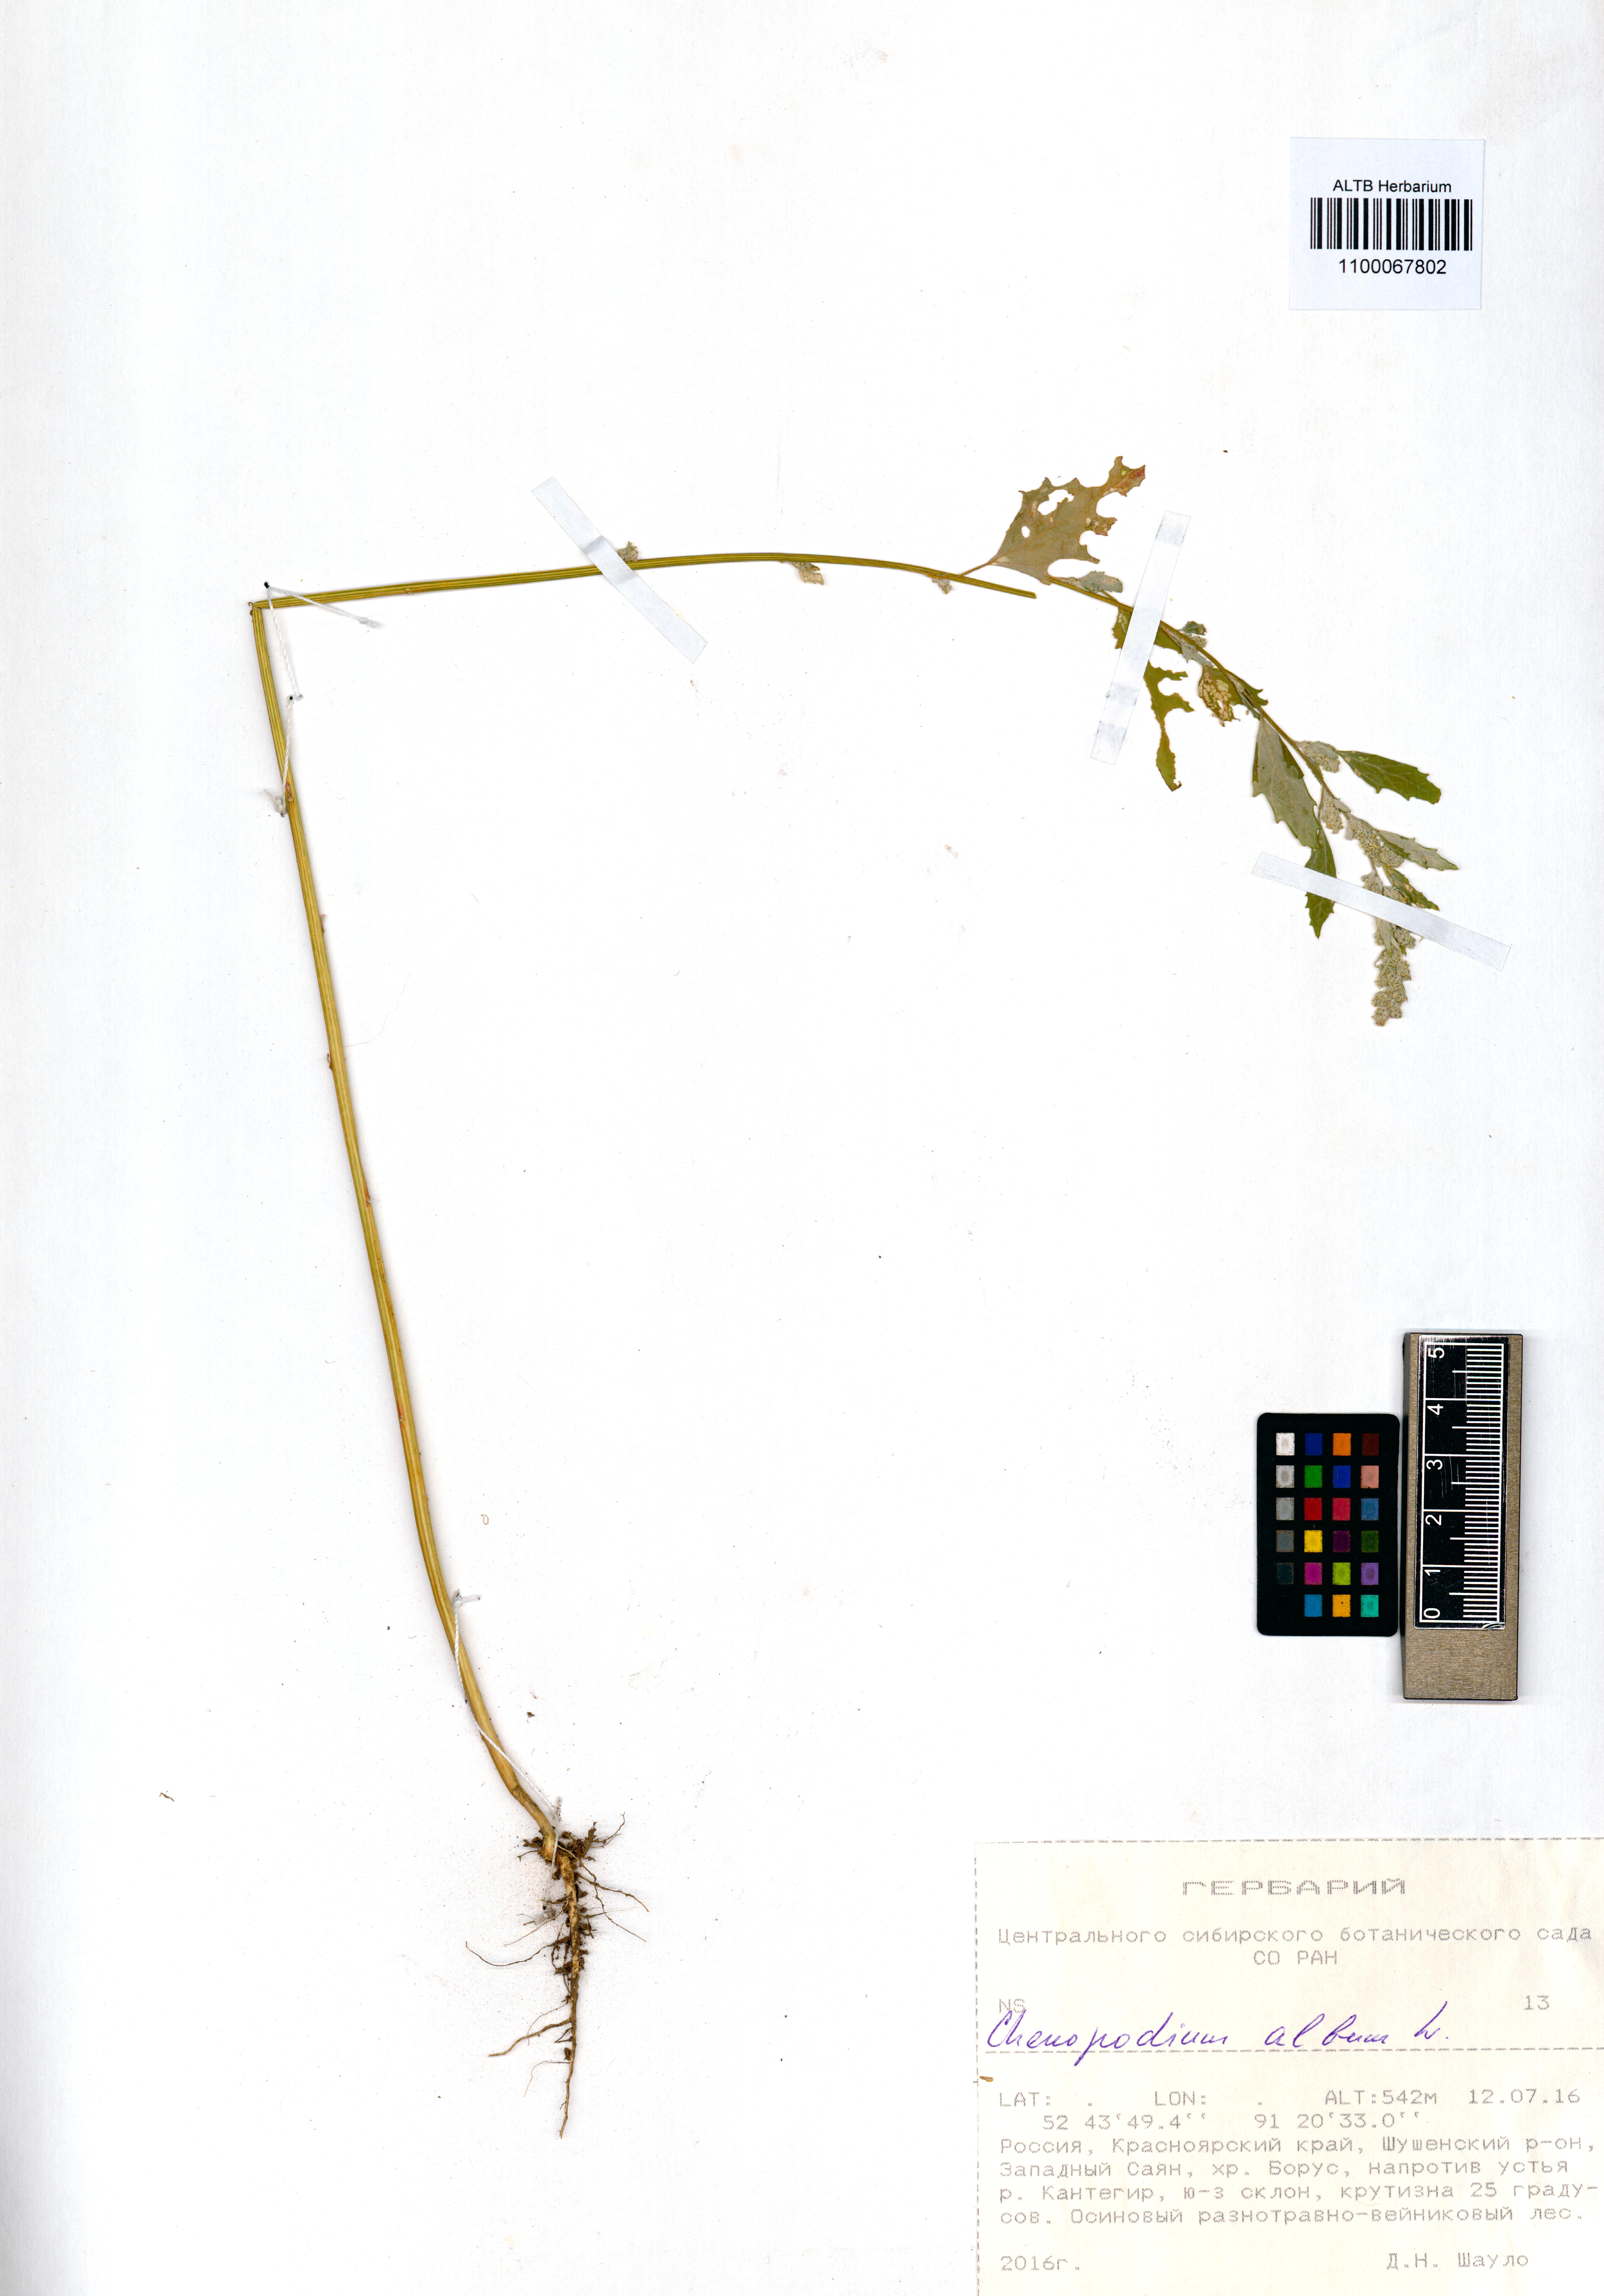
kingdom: Plantae
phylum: Tracheophyta
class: Magnoliopsida
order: Caryophyllales
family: Amaranthaceae
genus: Chenopodium
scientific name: Chenopodium album
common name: Fat-hen
